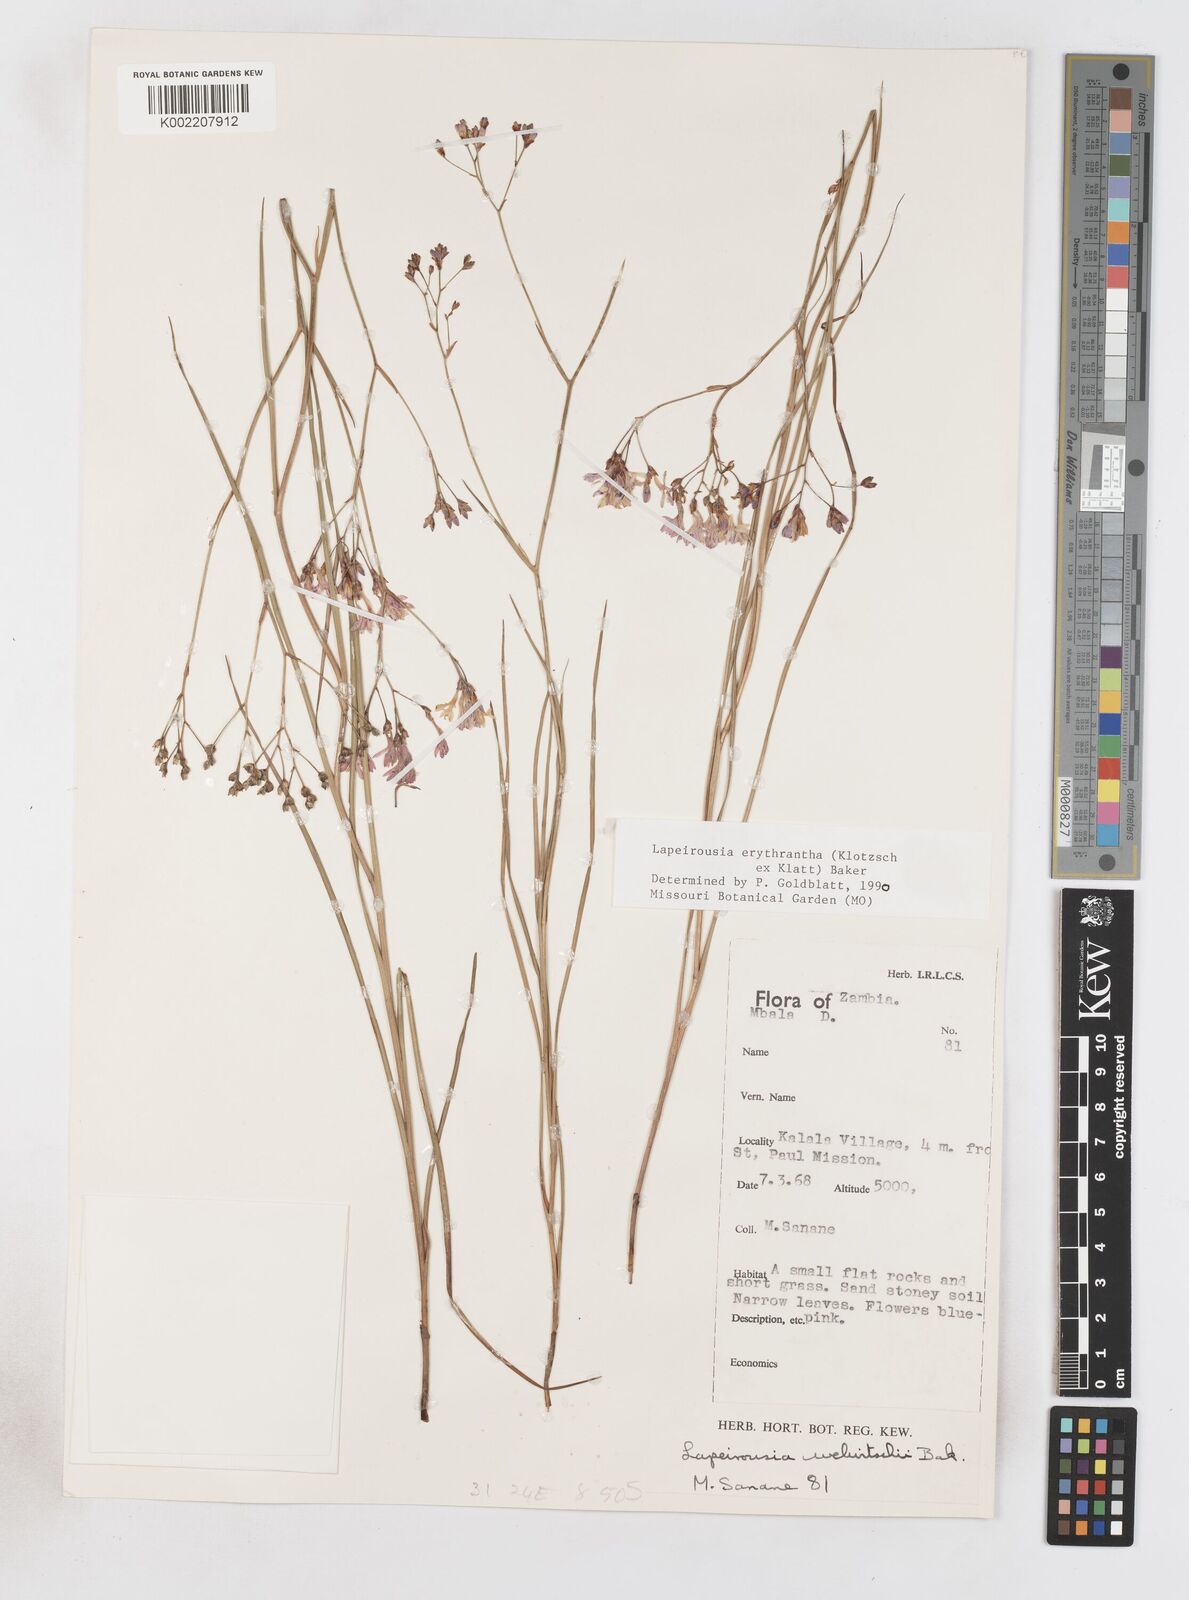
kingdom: Plantae
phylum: Tracheophyta
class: Liliopsida
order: Asparagales
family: Iridaceae
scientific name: Iridaceae
